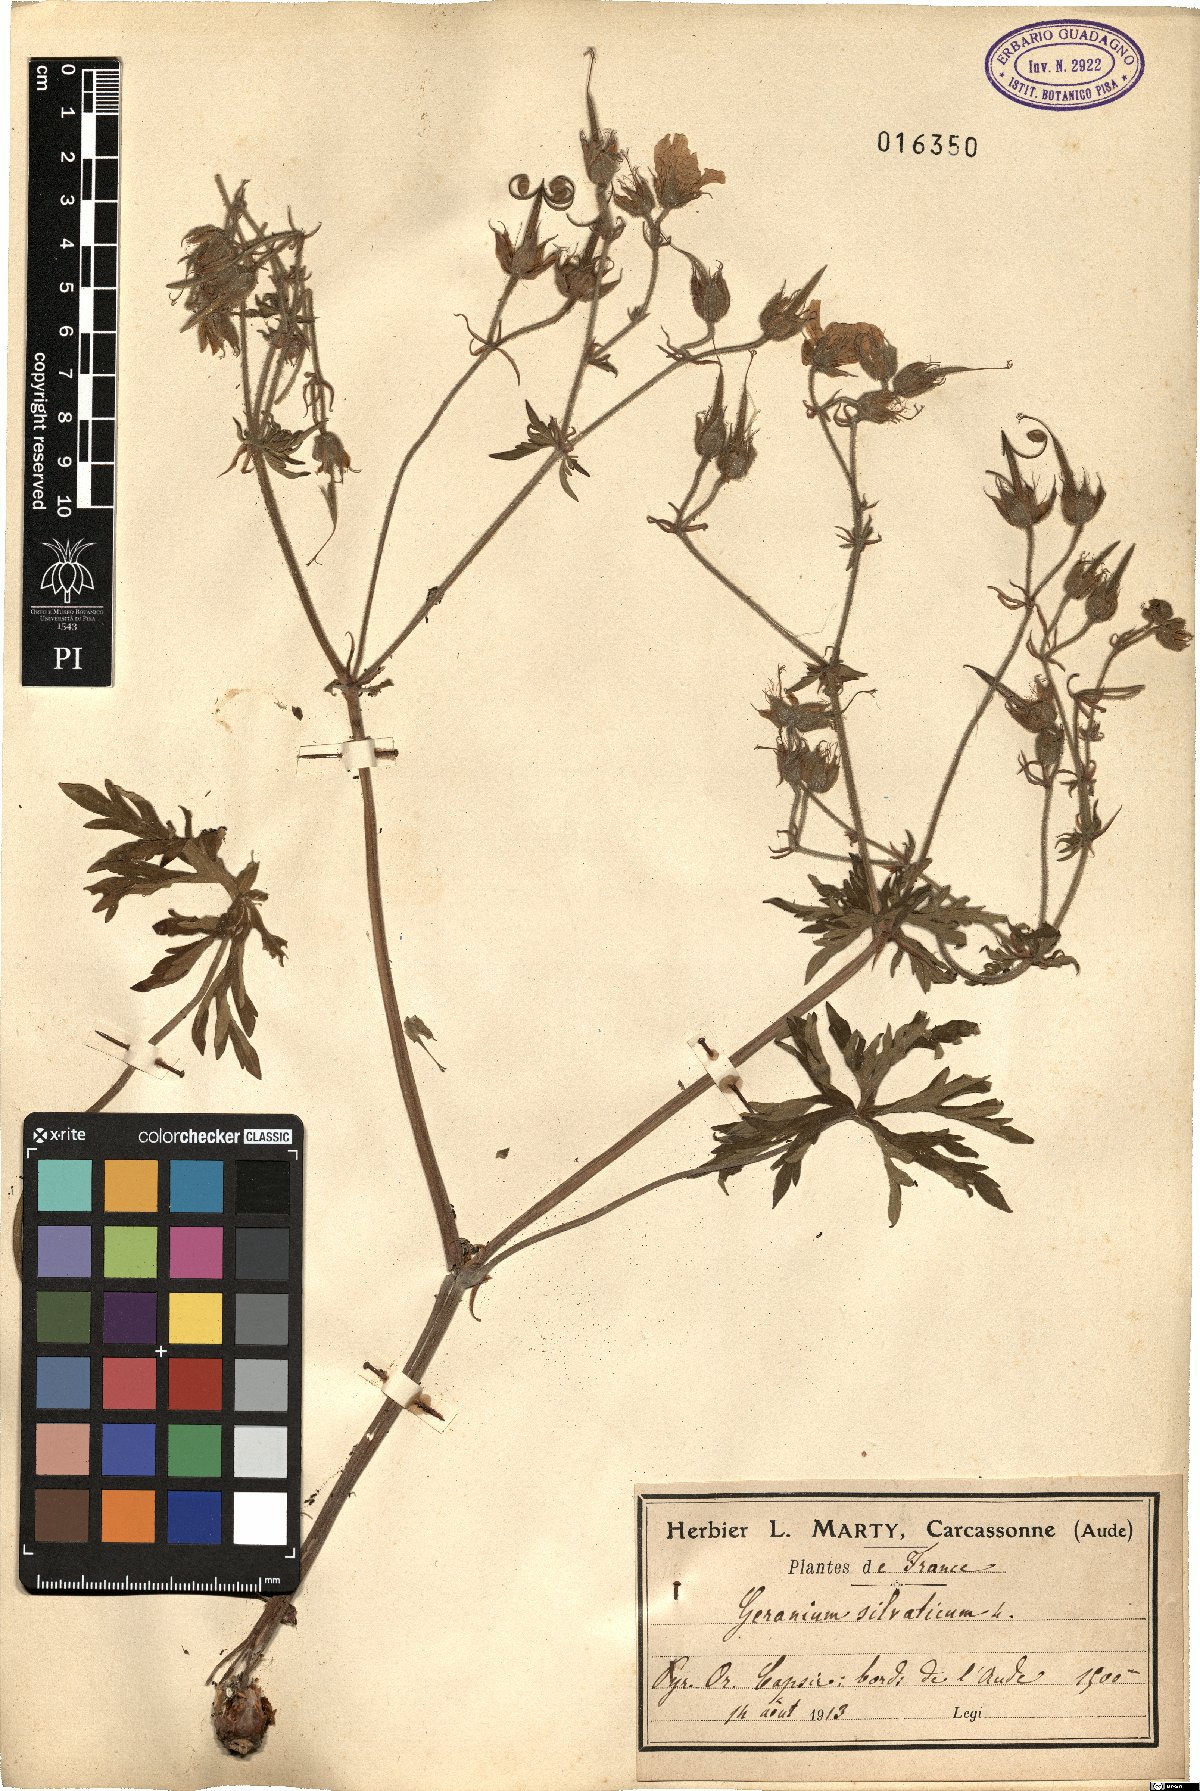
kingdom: Plantae
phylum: Tracheophyta
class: Magnoliopsida
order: Geraniales
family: Geraniaceae
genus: Geranium
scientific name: Geranium sylvaticum
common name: Wood crane's-bill
